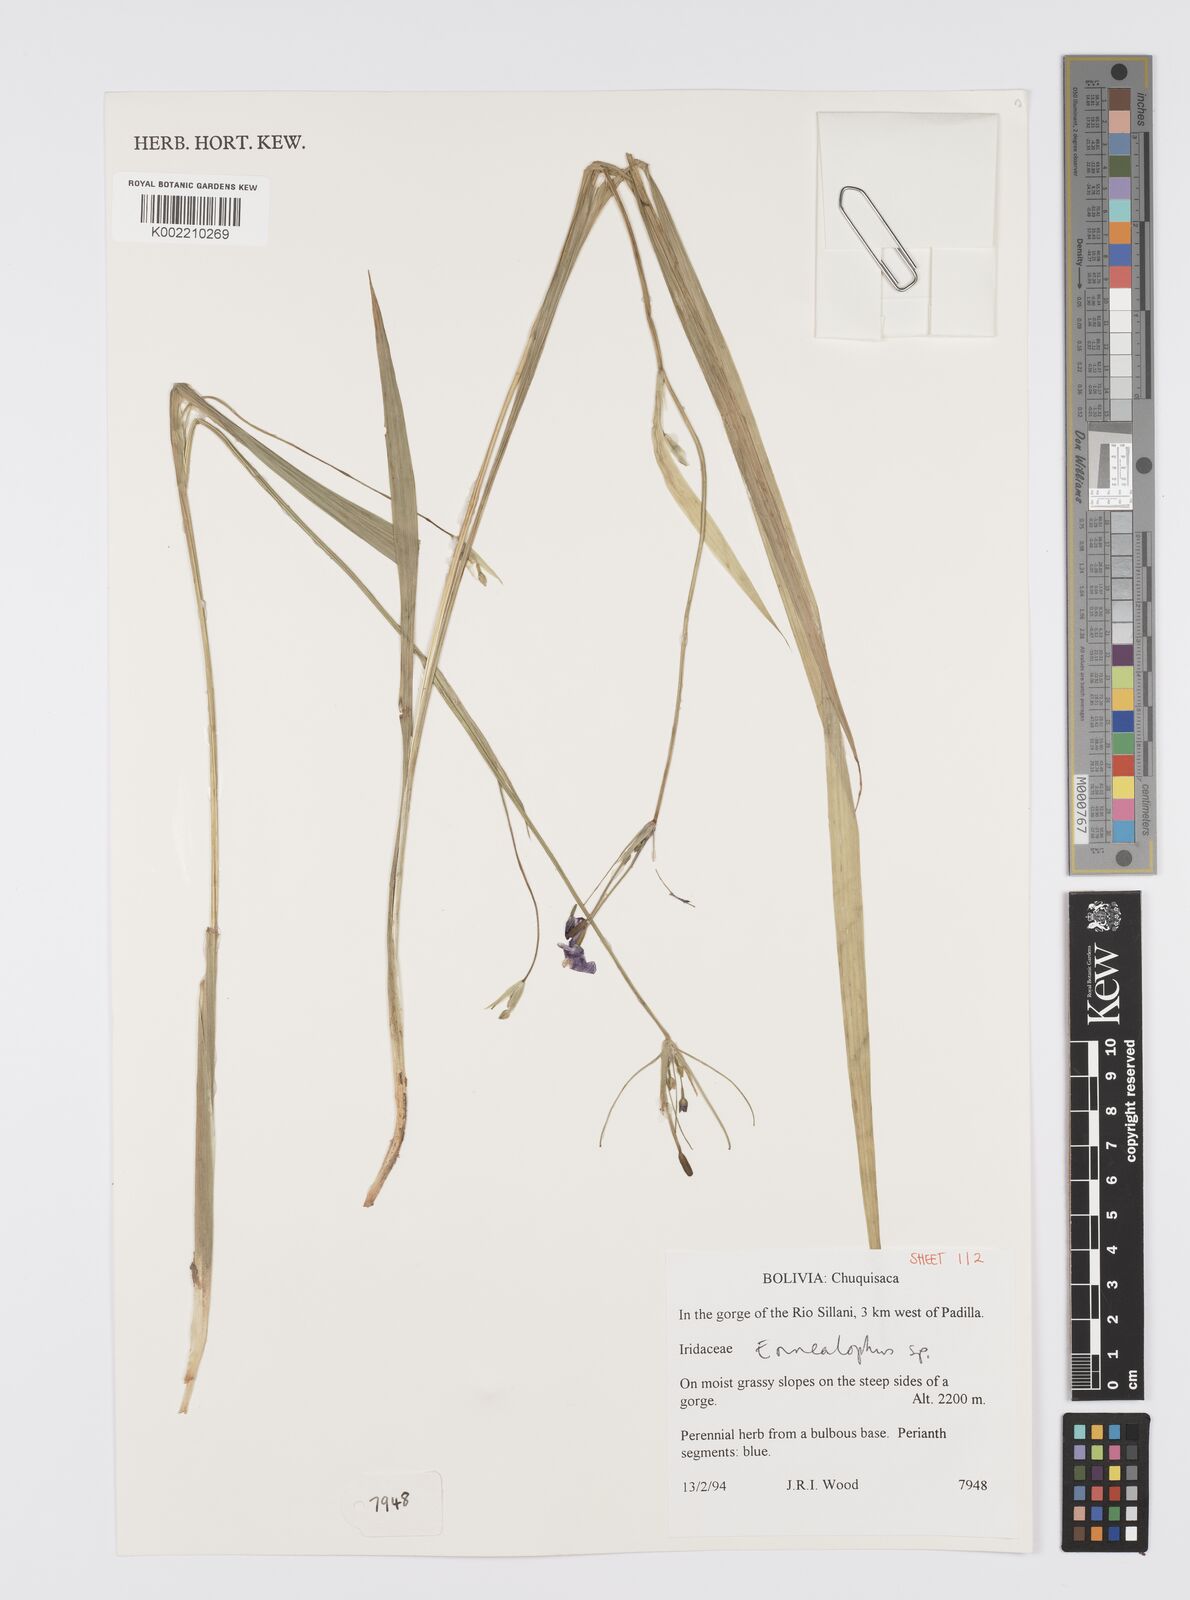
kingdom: Plantae
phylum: Tracheophyta
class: Liliopsida
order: Asparagales
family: Iridaceae
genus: Ennealophus
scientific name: Ennealophus euryandrus
